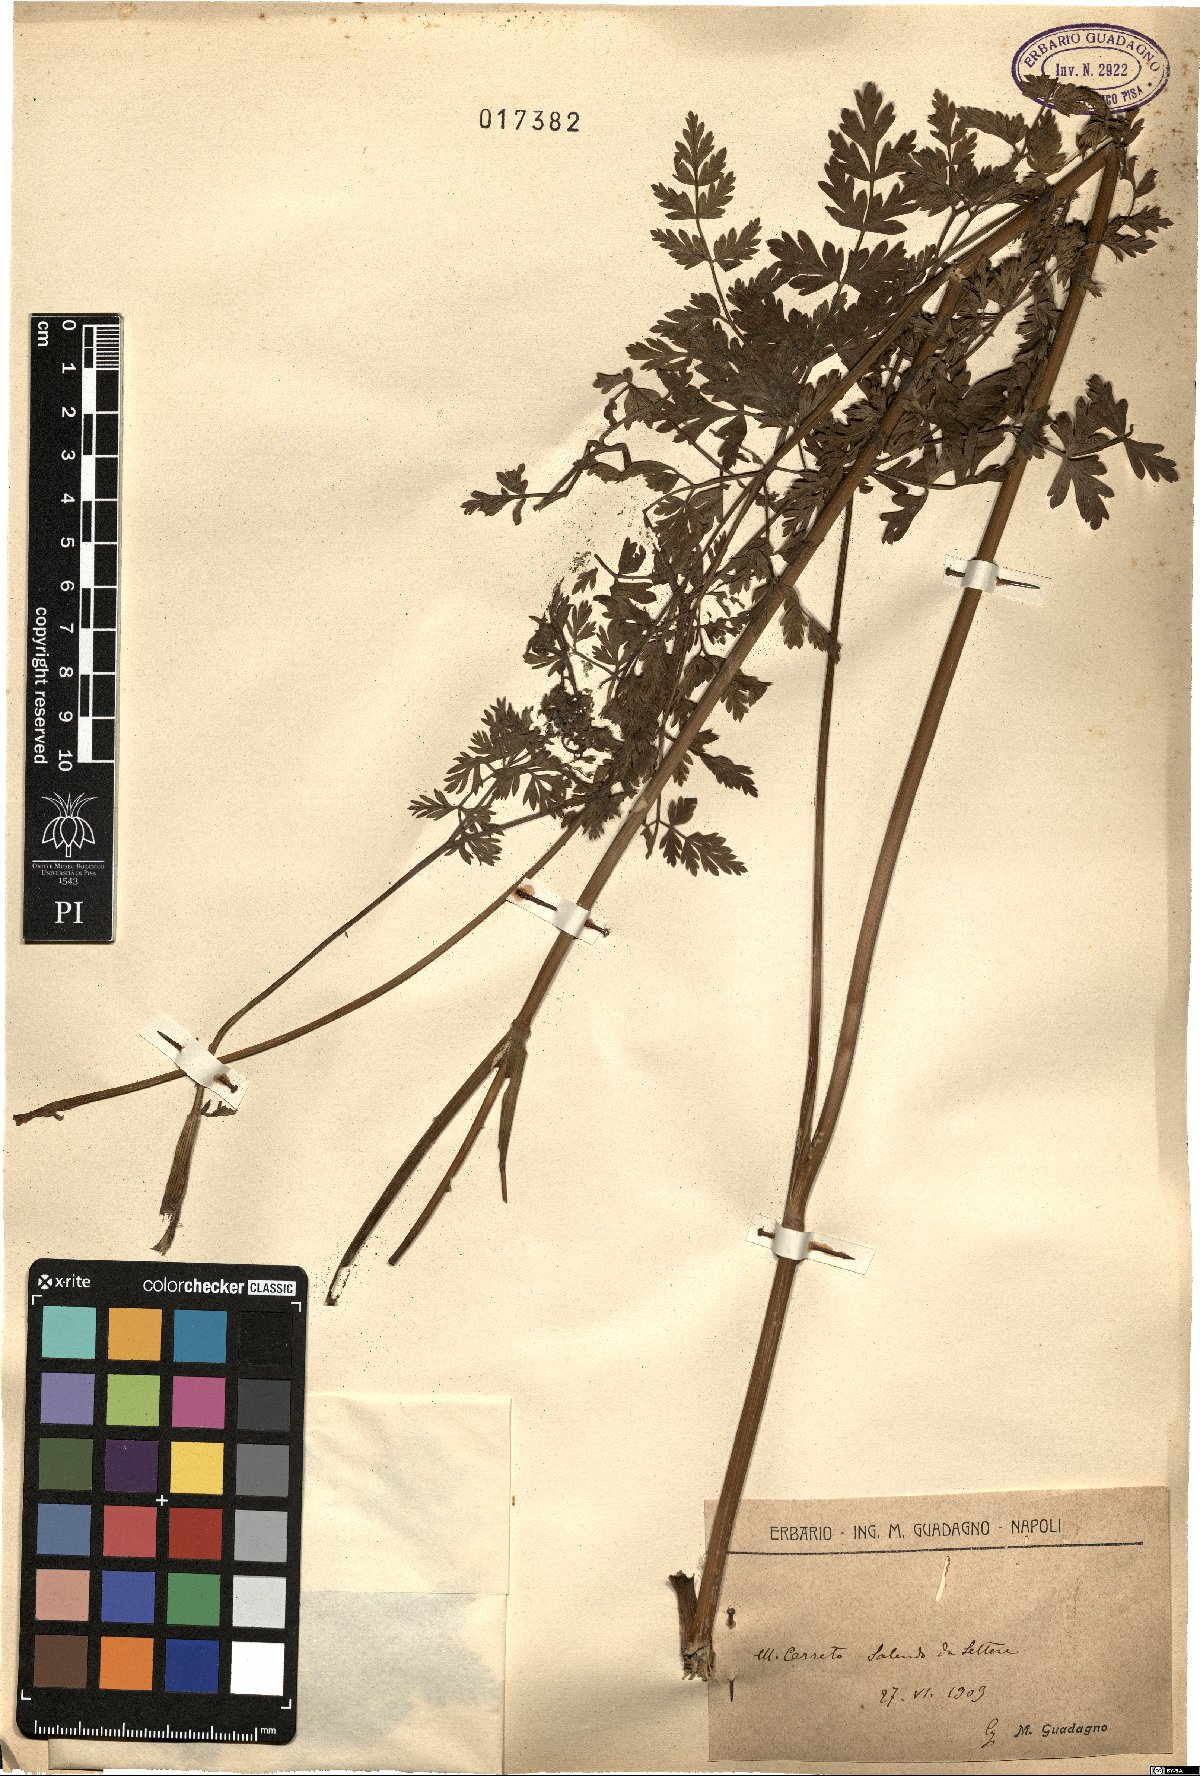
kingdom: Plantae
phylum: Tracheophyta
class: Magnoliopsida
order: Apiales
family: Apiaceae
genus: Selinum
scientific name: Selinum
